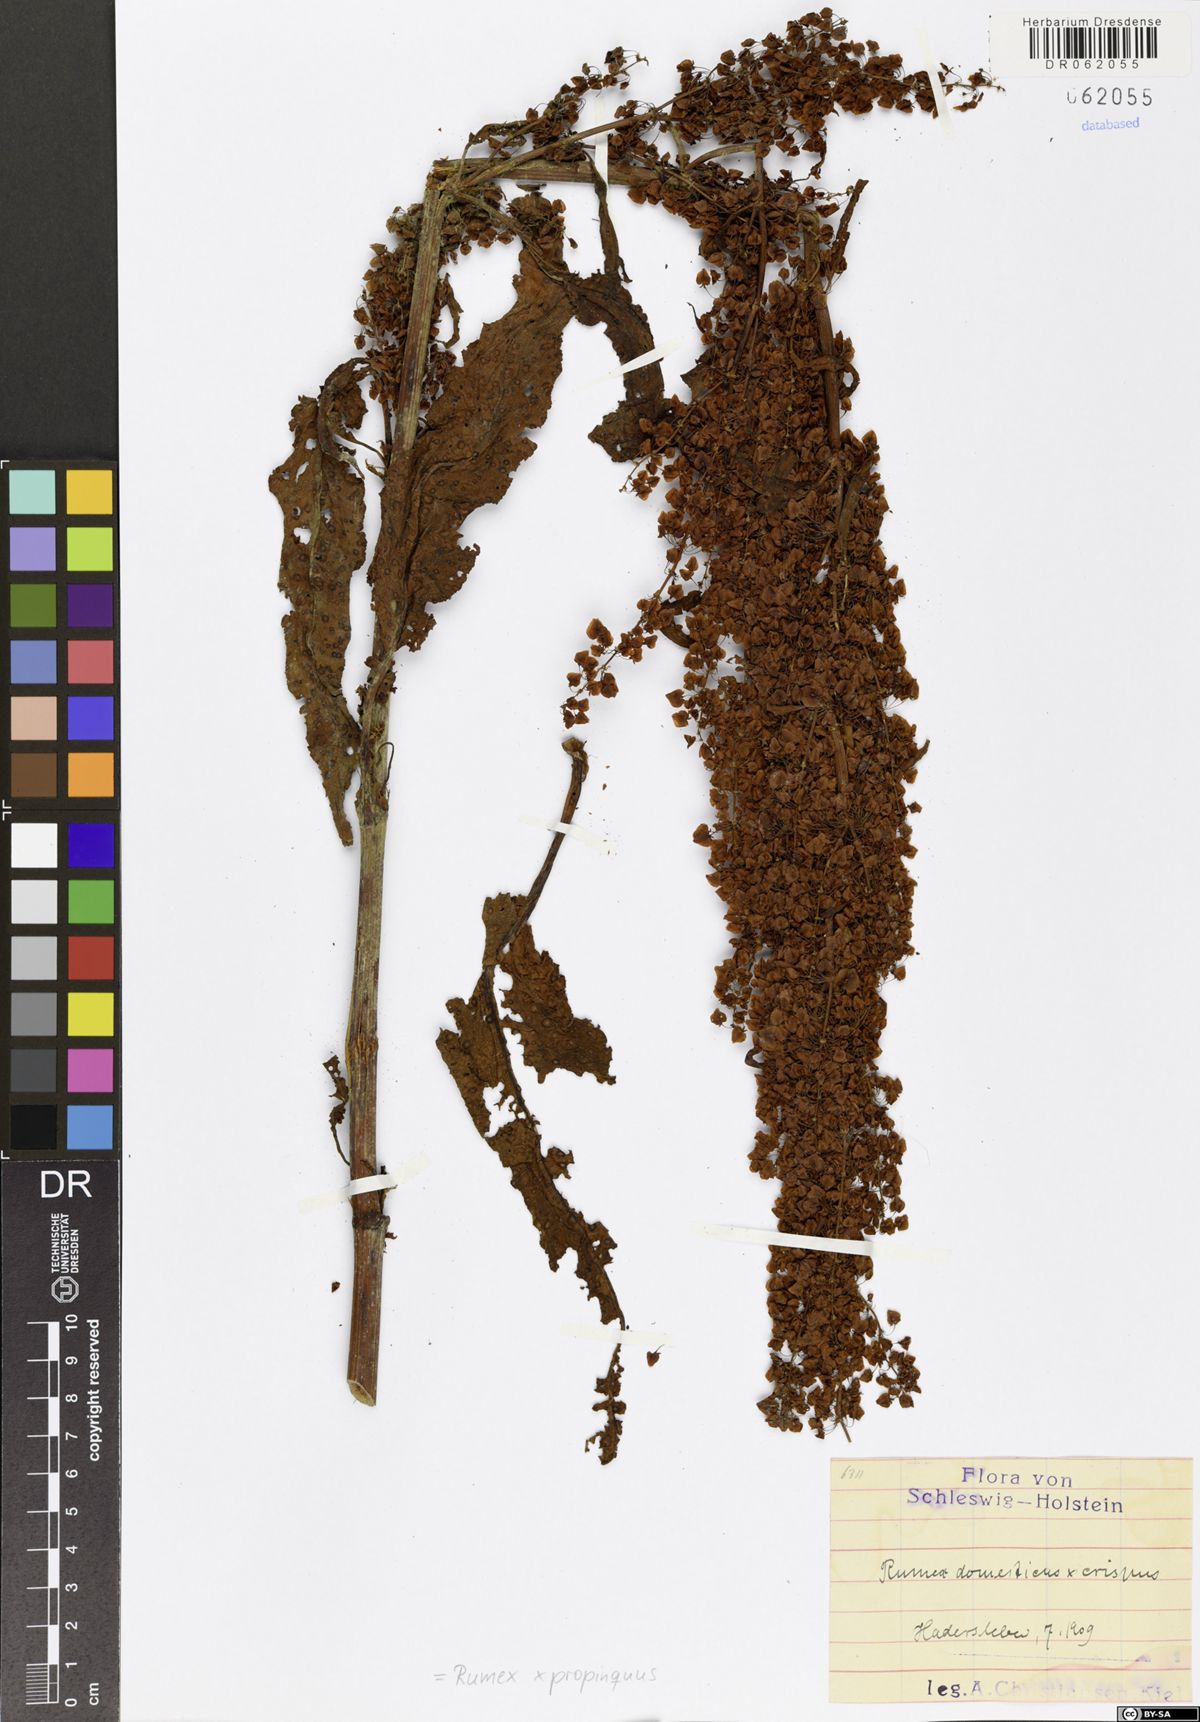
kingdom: Plantae
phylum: Tracheophyta
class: Magnoliopsida
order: Caryophyllales
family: Polygonaceae
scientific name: Polygonaceae
